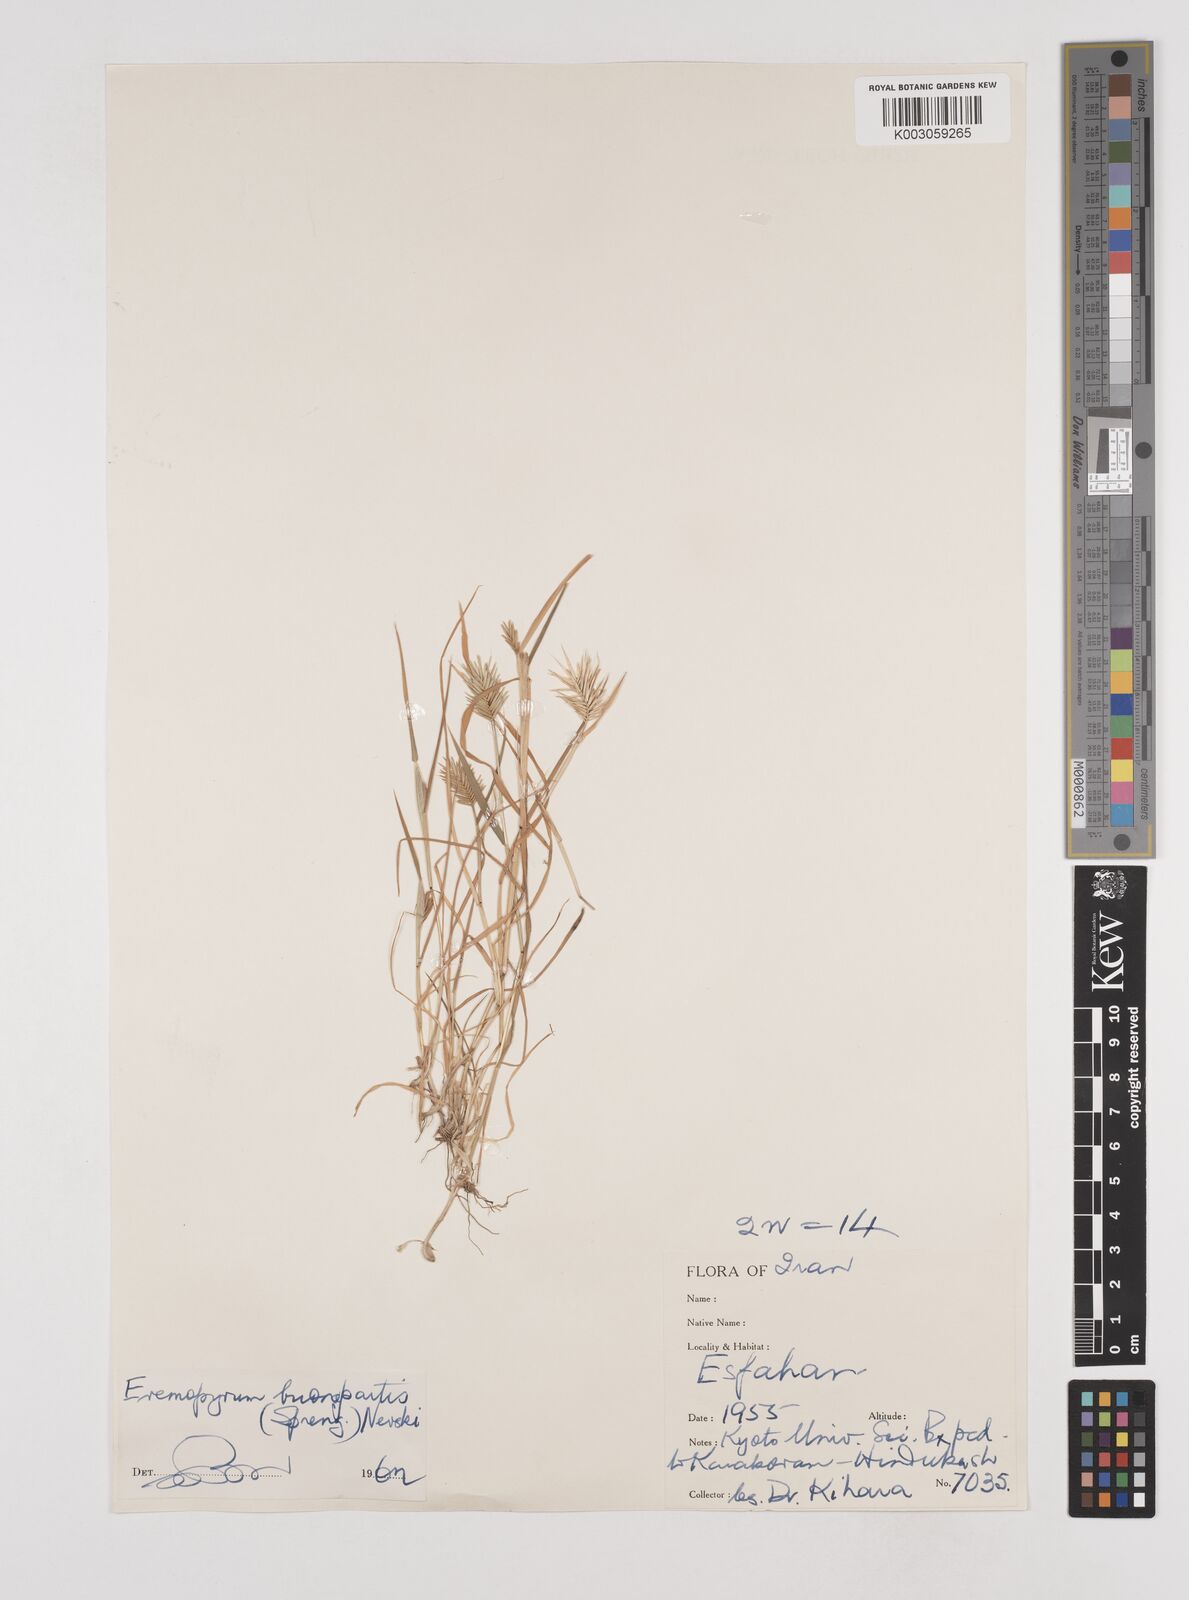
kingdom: Plantae
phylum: Tracheophyta
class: Liliopsida
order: Poales
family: Poaceae
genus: Eremopyrum
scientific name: Eremopyrum bonaepartis
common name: Tapertip false wheatgrass
